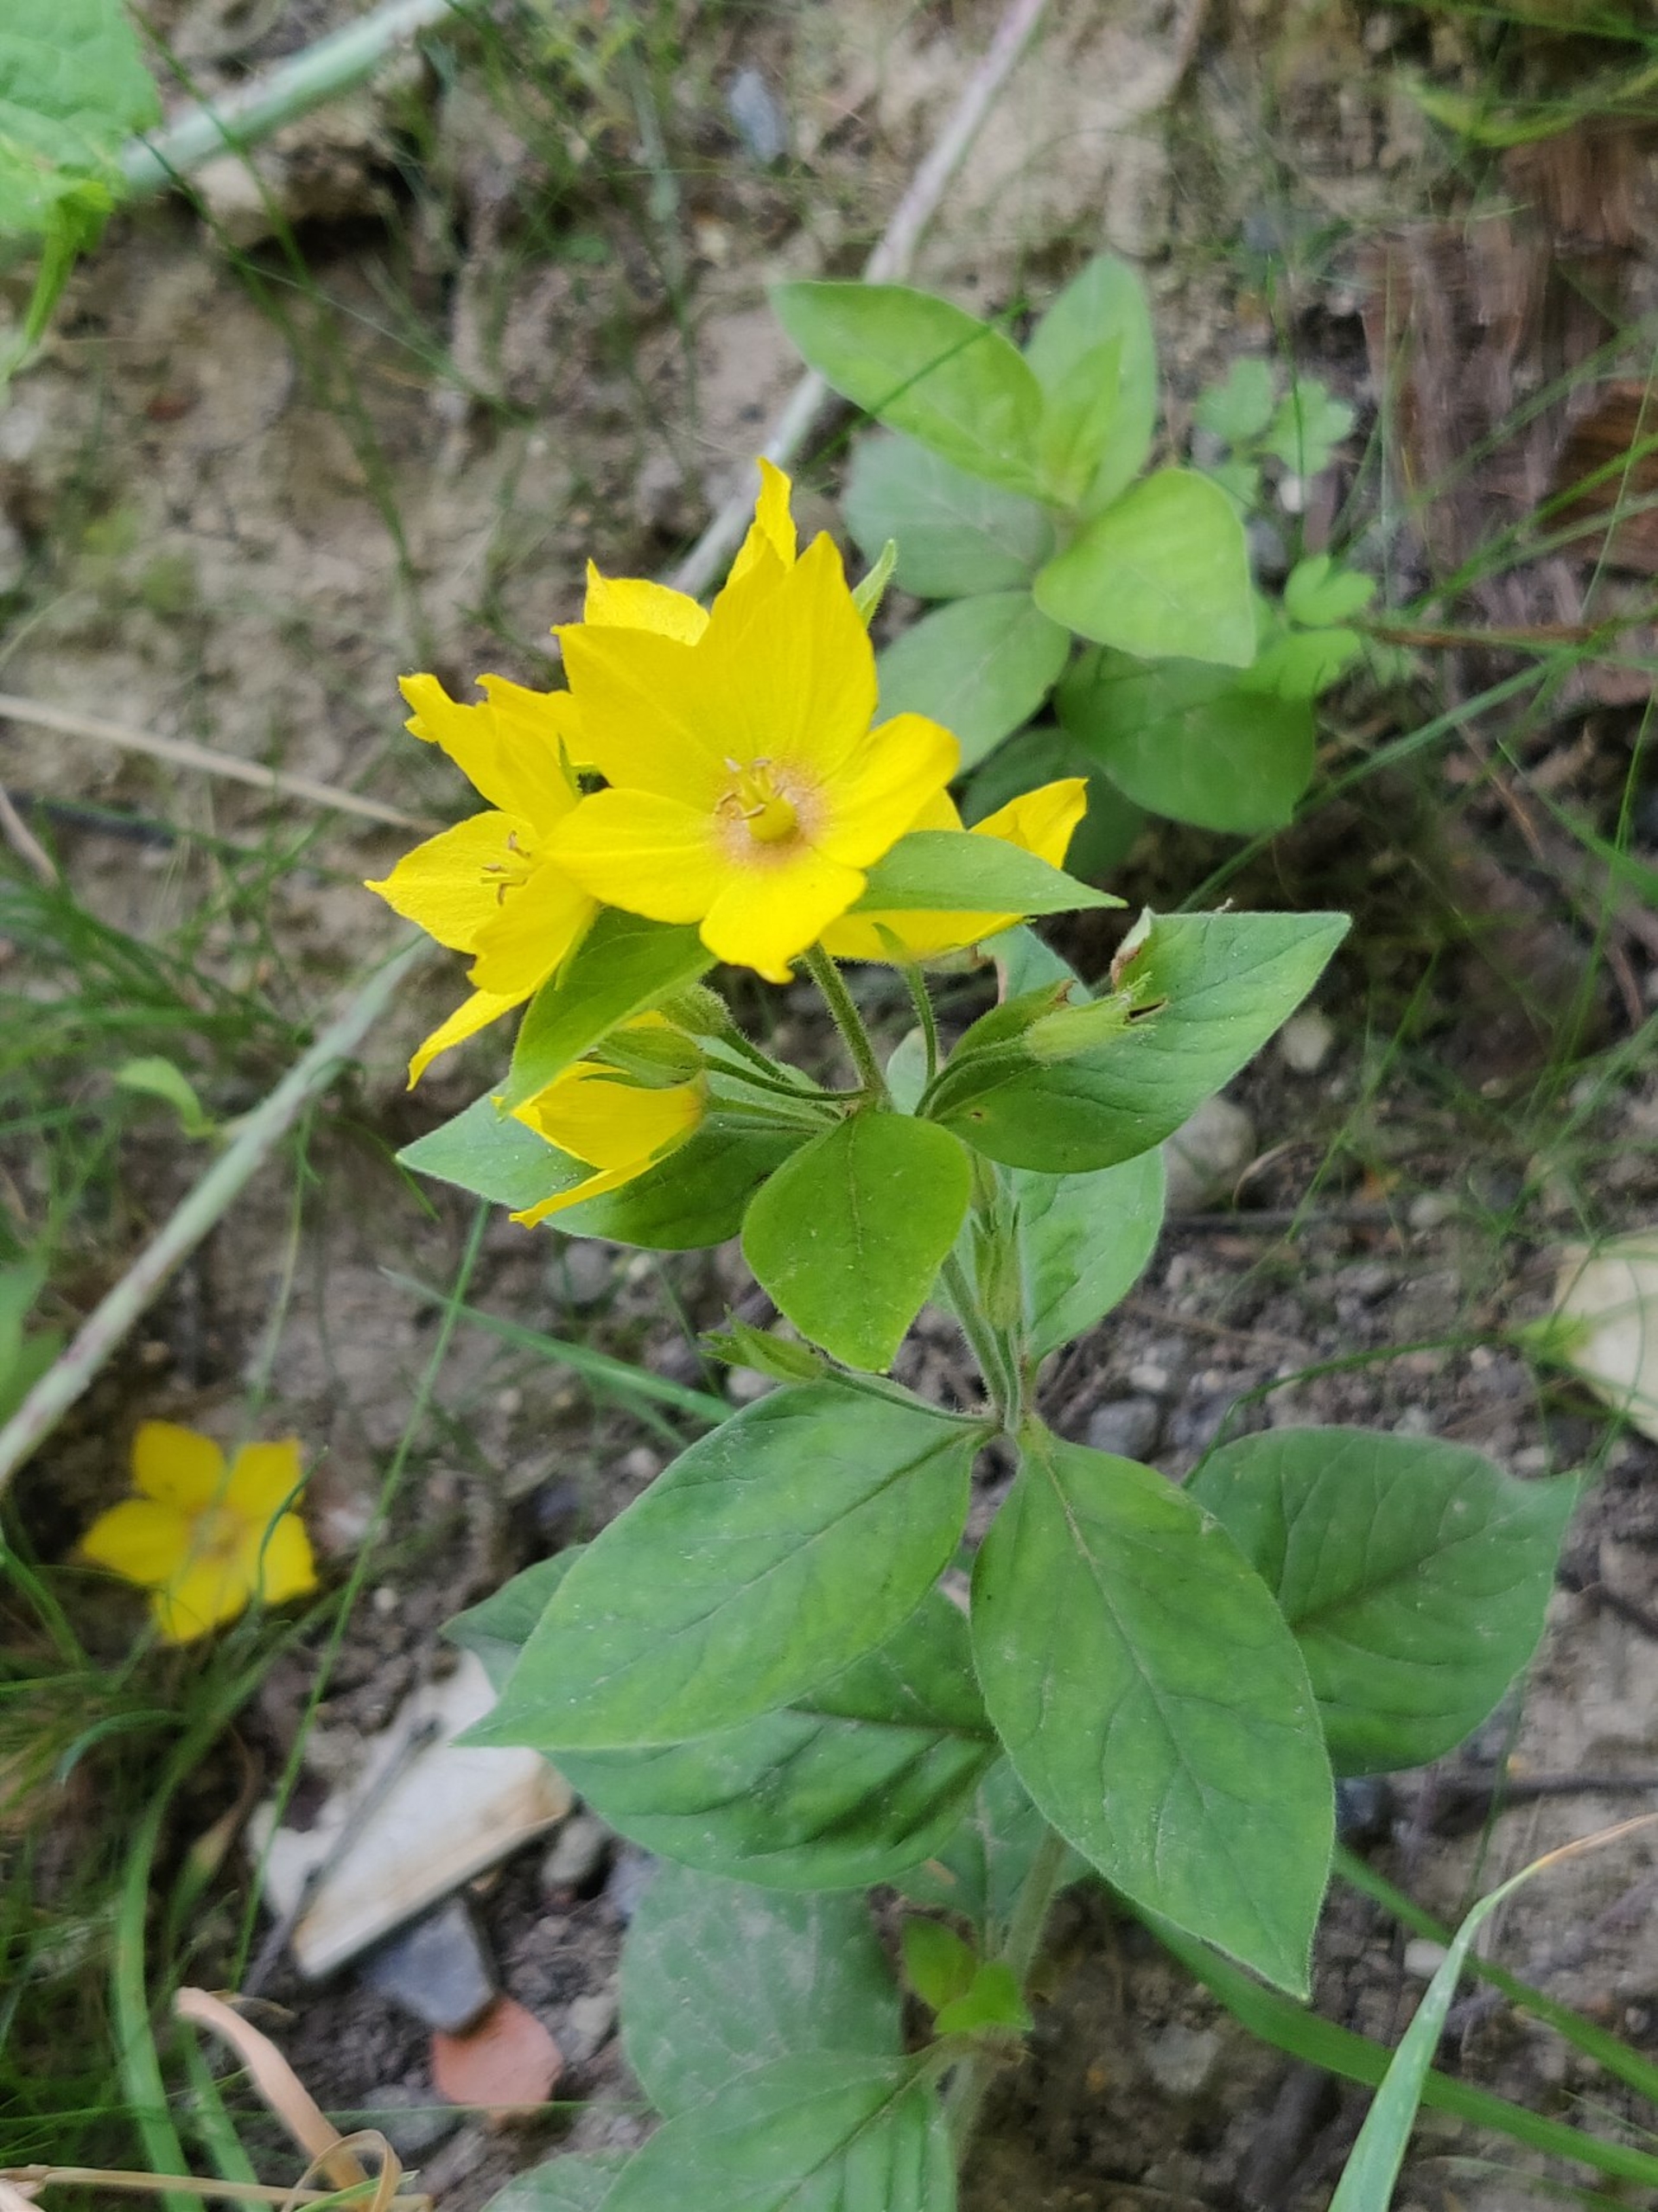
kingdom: Plantae
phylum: Tracheophyta
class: Magnoliopsida
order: Ericales
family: Primulaceae
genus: Lysimachia
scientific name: Lysimachia punctata
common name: Prikbladet fredløs
